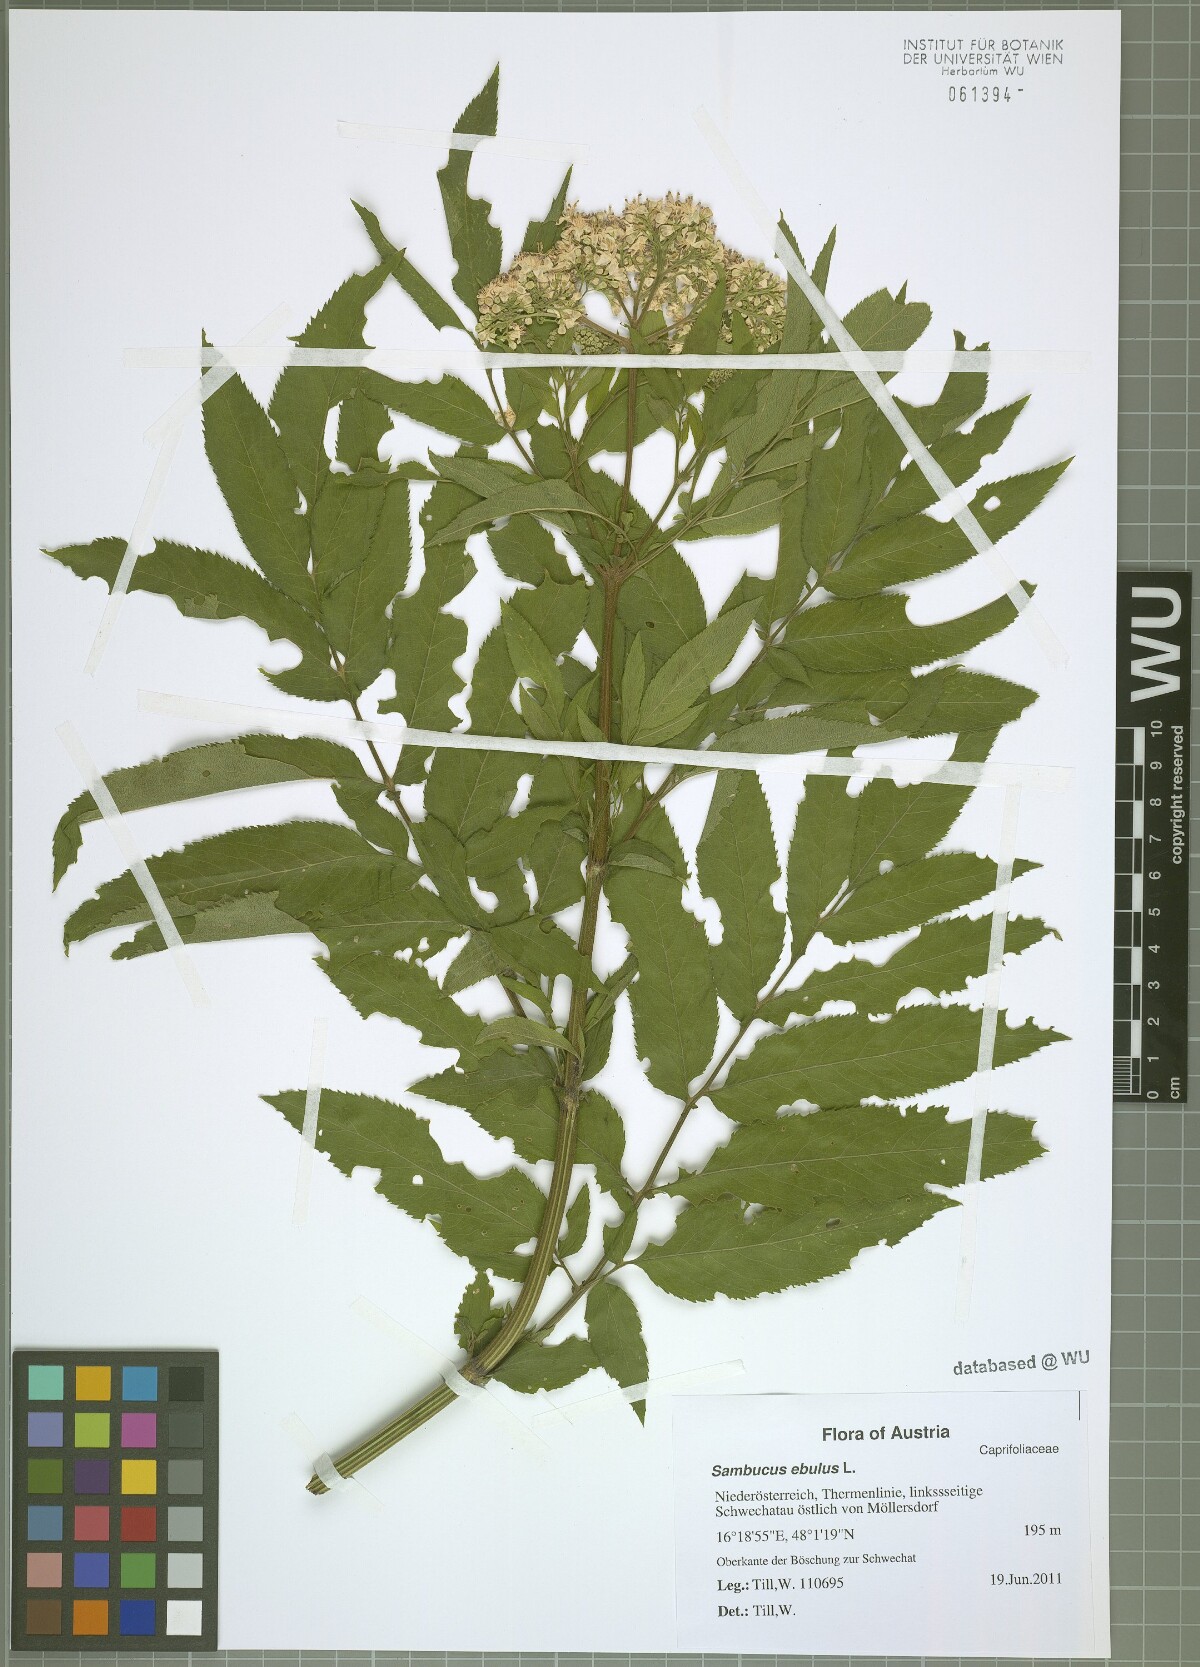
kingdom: Plantae
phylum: Tracheophyta
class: Magnoliopsida
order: Dipsacales
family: Viburnaceae
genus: Sambucus
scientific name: Sambucus ebulus
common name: Dwarf elder
